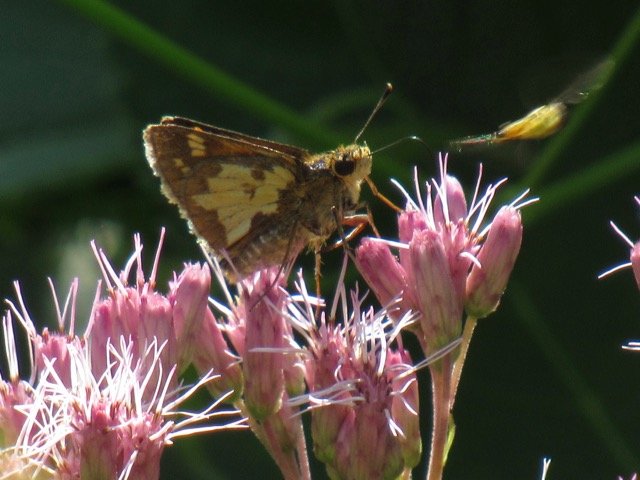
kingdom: Animalia
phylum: Arthropoda
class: Insecta
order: Lepidoptera
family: Hesperiidae
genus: Polites
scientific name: Polites coras
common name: Peck's Skipper
